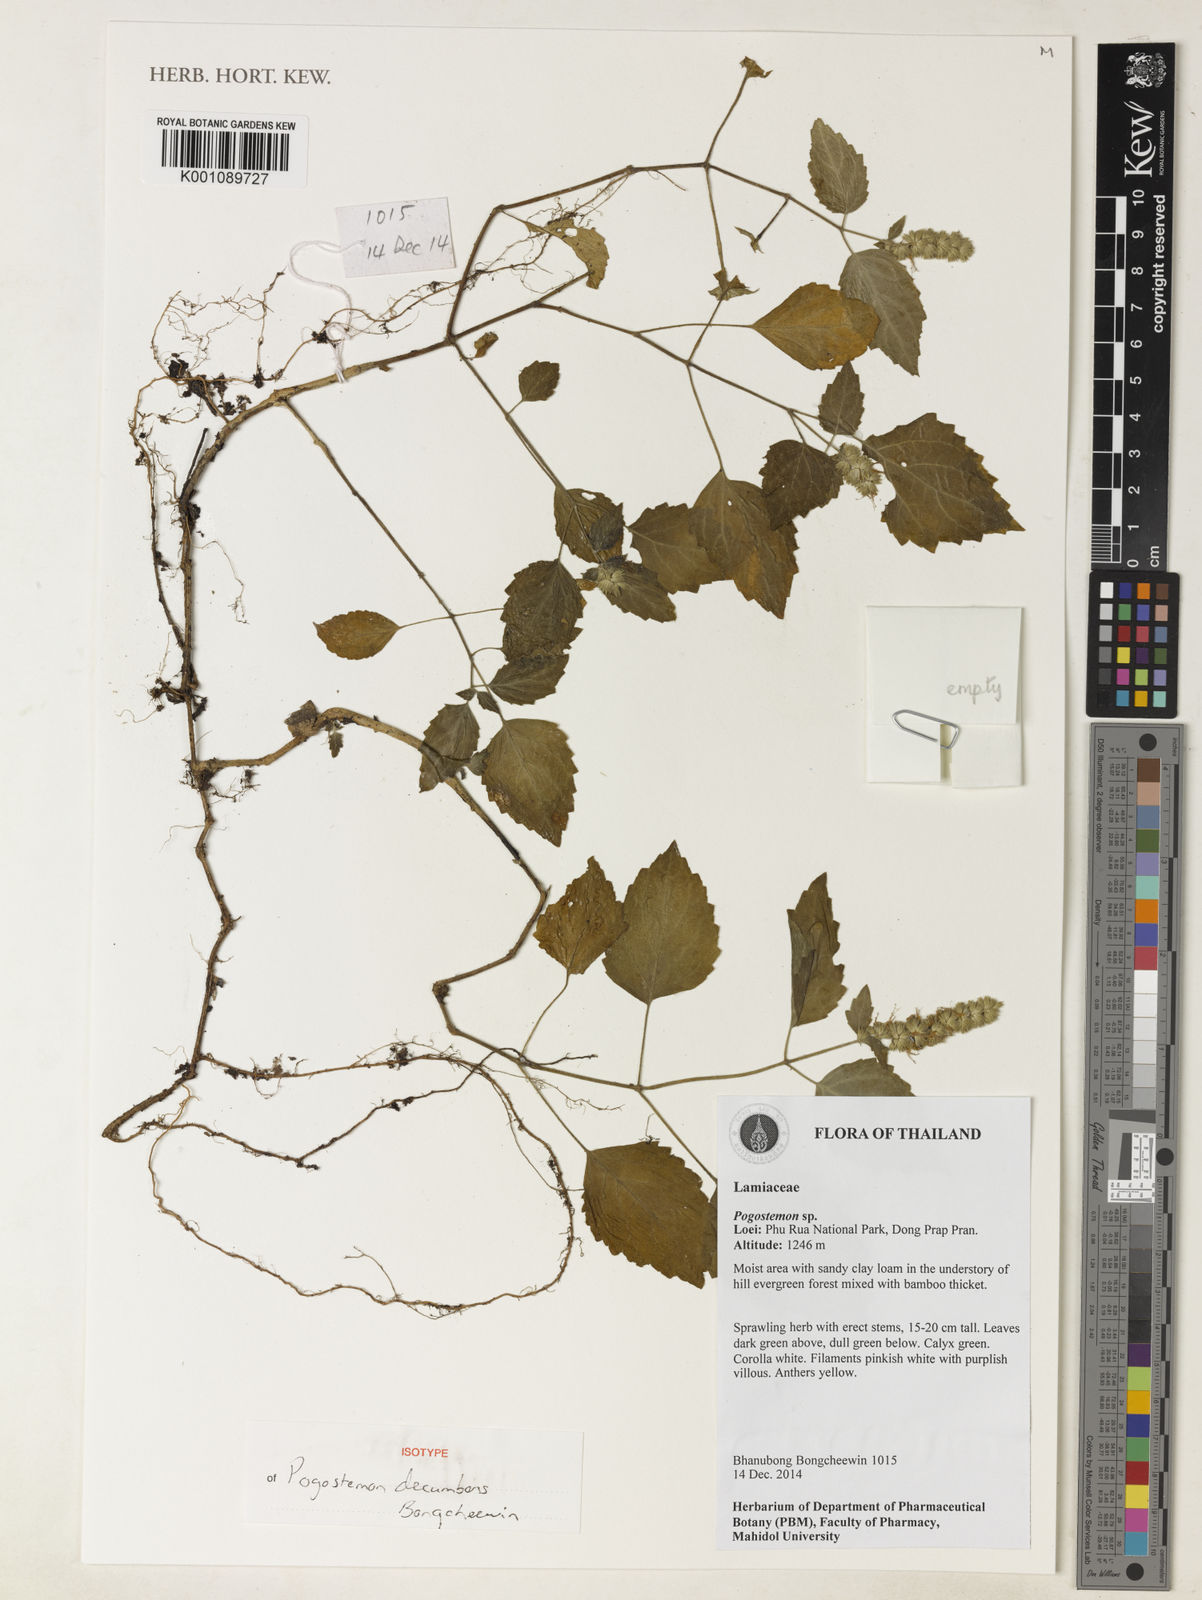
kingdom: Plantae
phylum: Tracheophyta
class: Magnoliopsida
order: Lamiales
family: Lamiaceae
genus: Pogostemon
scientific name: Pogostemon
